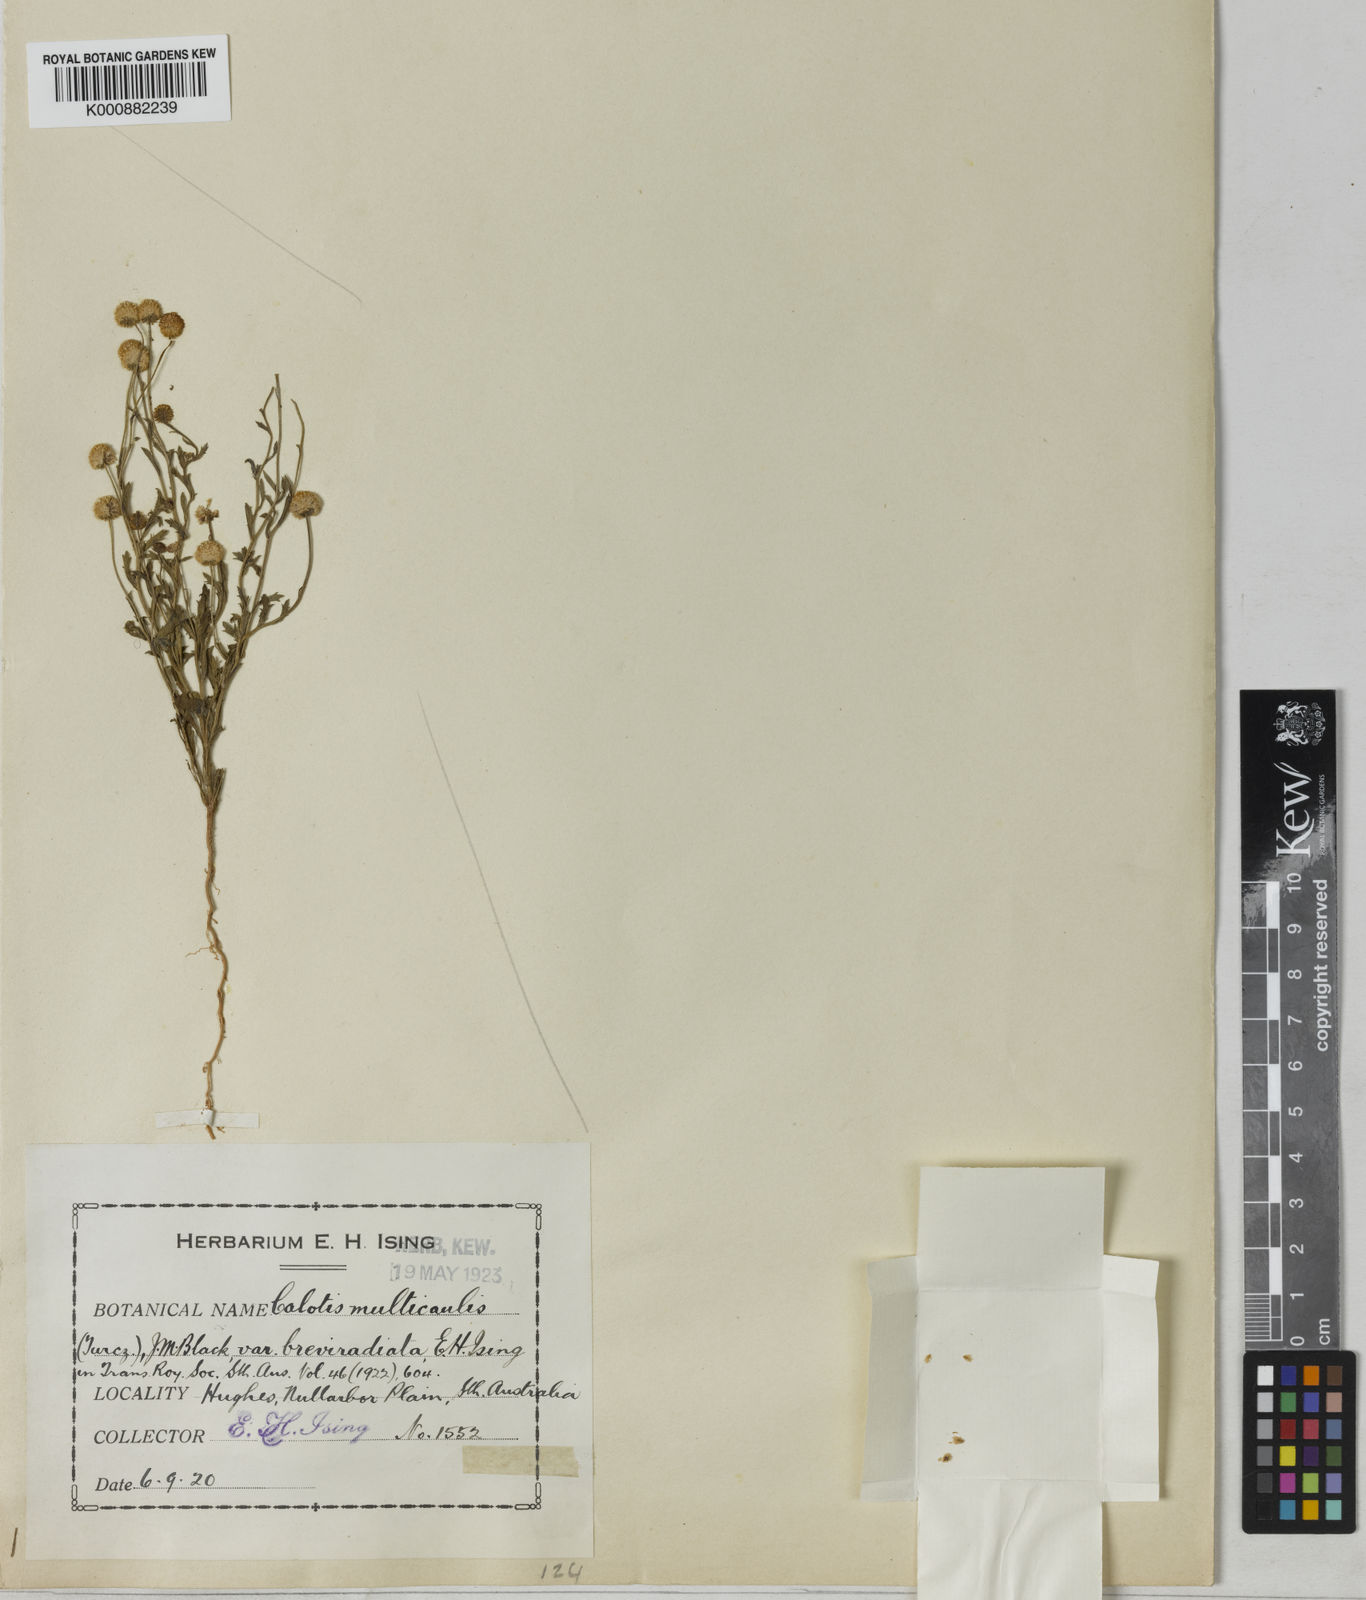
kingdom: Plantae
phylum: Tracheophyta
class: Magnoliopsida
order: Asterales
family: Asteraceae
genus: Calotis
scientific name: Calotis breviradiata
